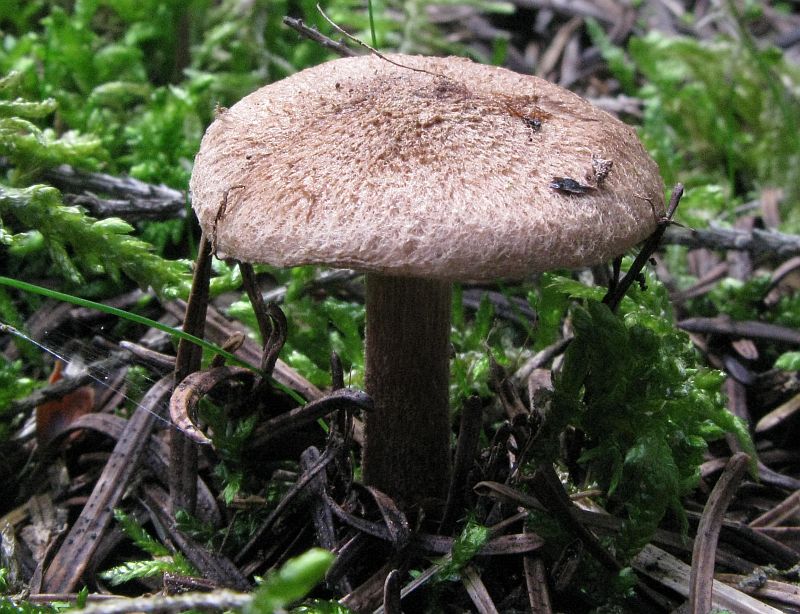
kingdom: Fungi
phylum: Basidiomycota
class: Agaricomycetes
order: Agaricales
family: Inocybaceae
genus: Inocybe
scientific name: Inocybe subcarpta
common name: plantage-trævlhat
